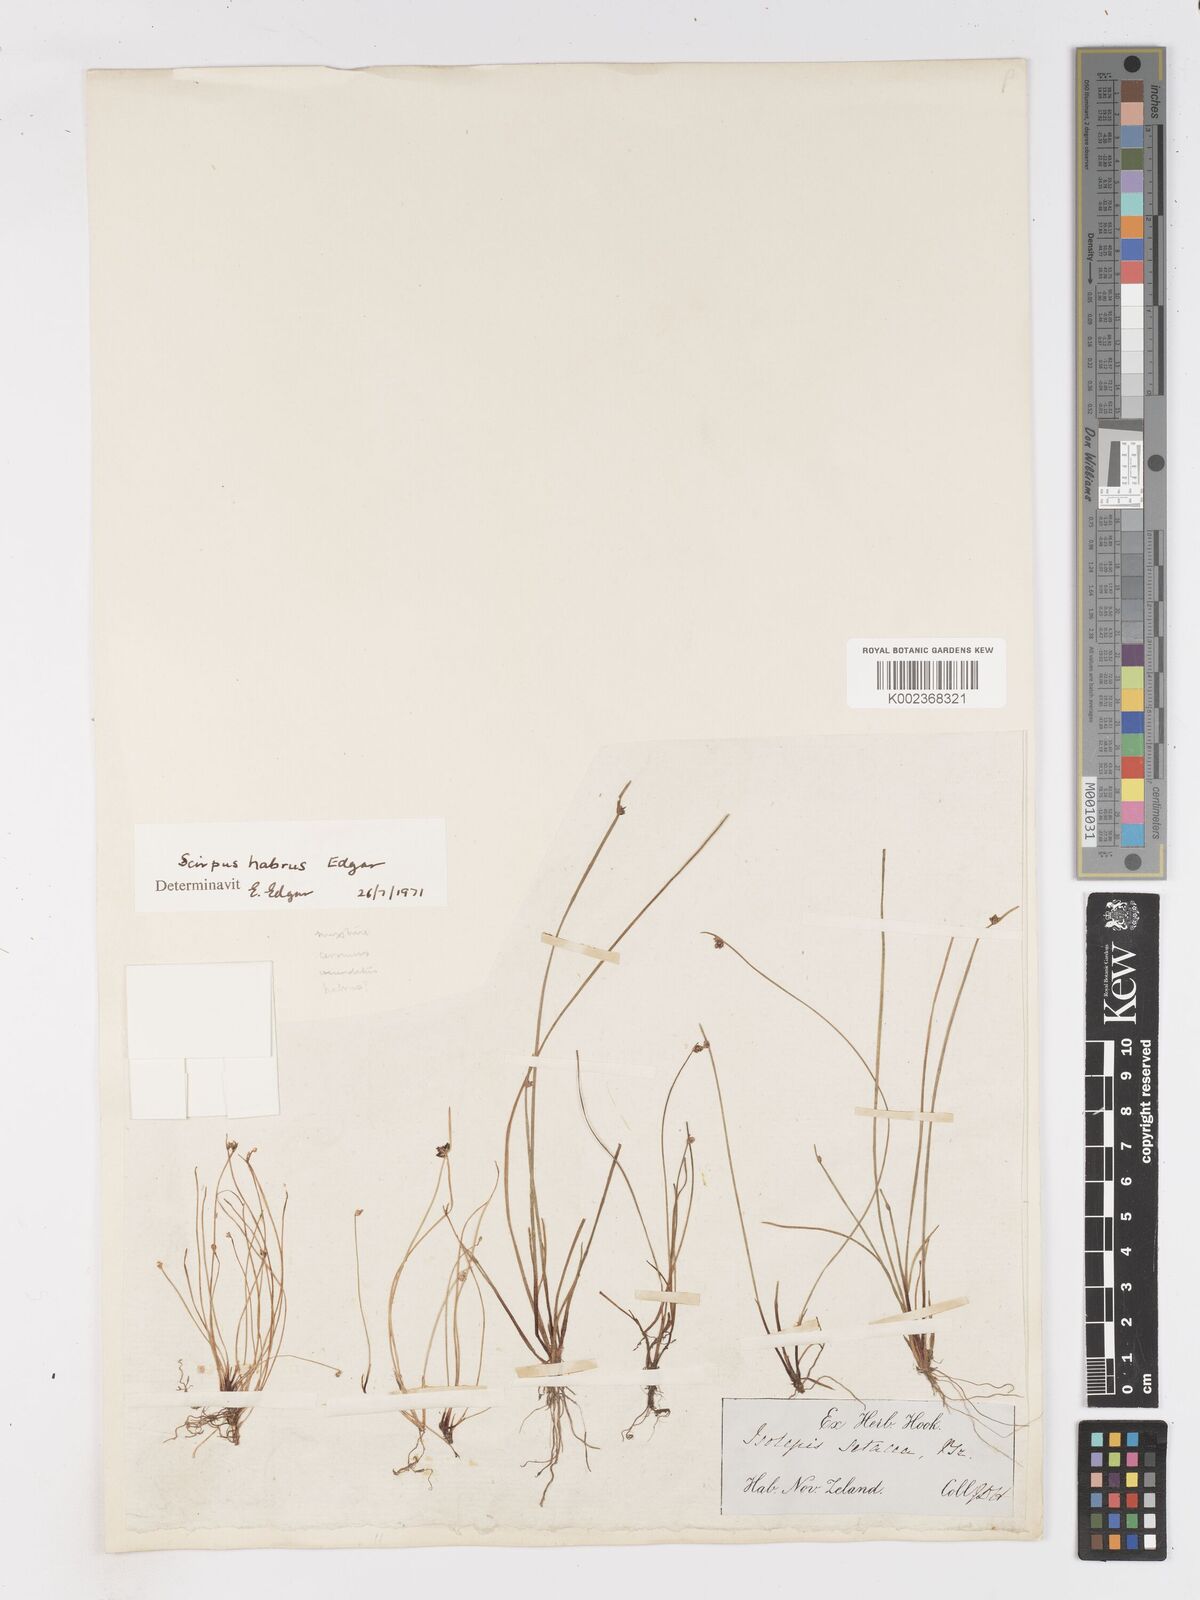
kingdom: Plantae
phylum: Tracheophyta
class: Liliopsida
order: Poales
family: Cyperaceae
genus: Isolepis
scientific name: Isolepis habra
